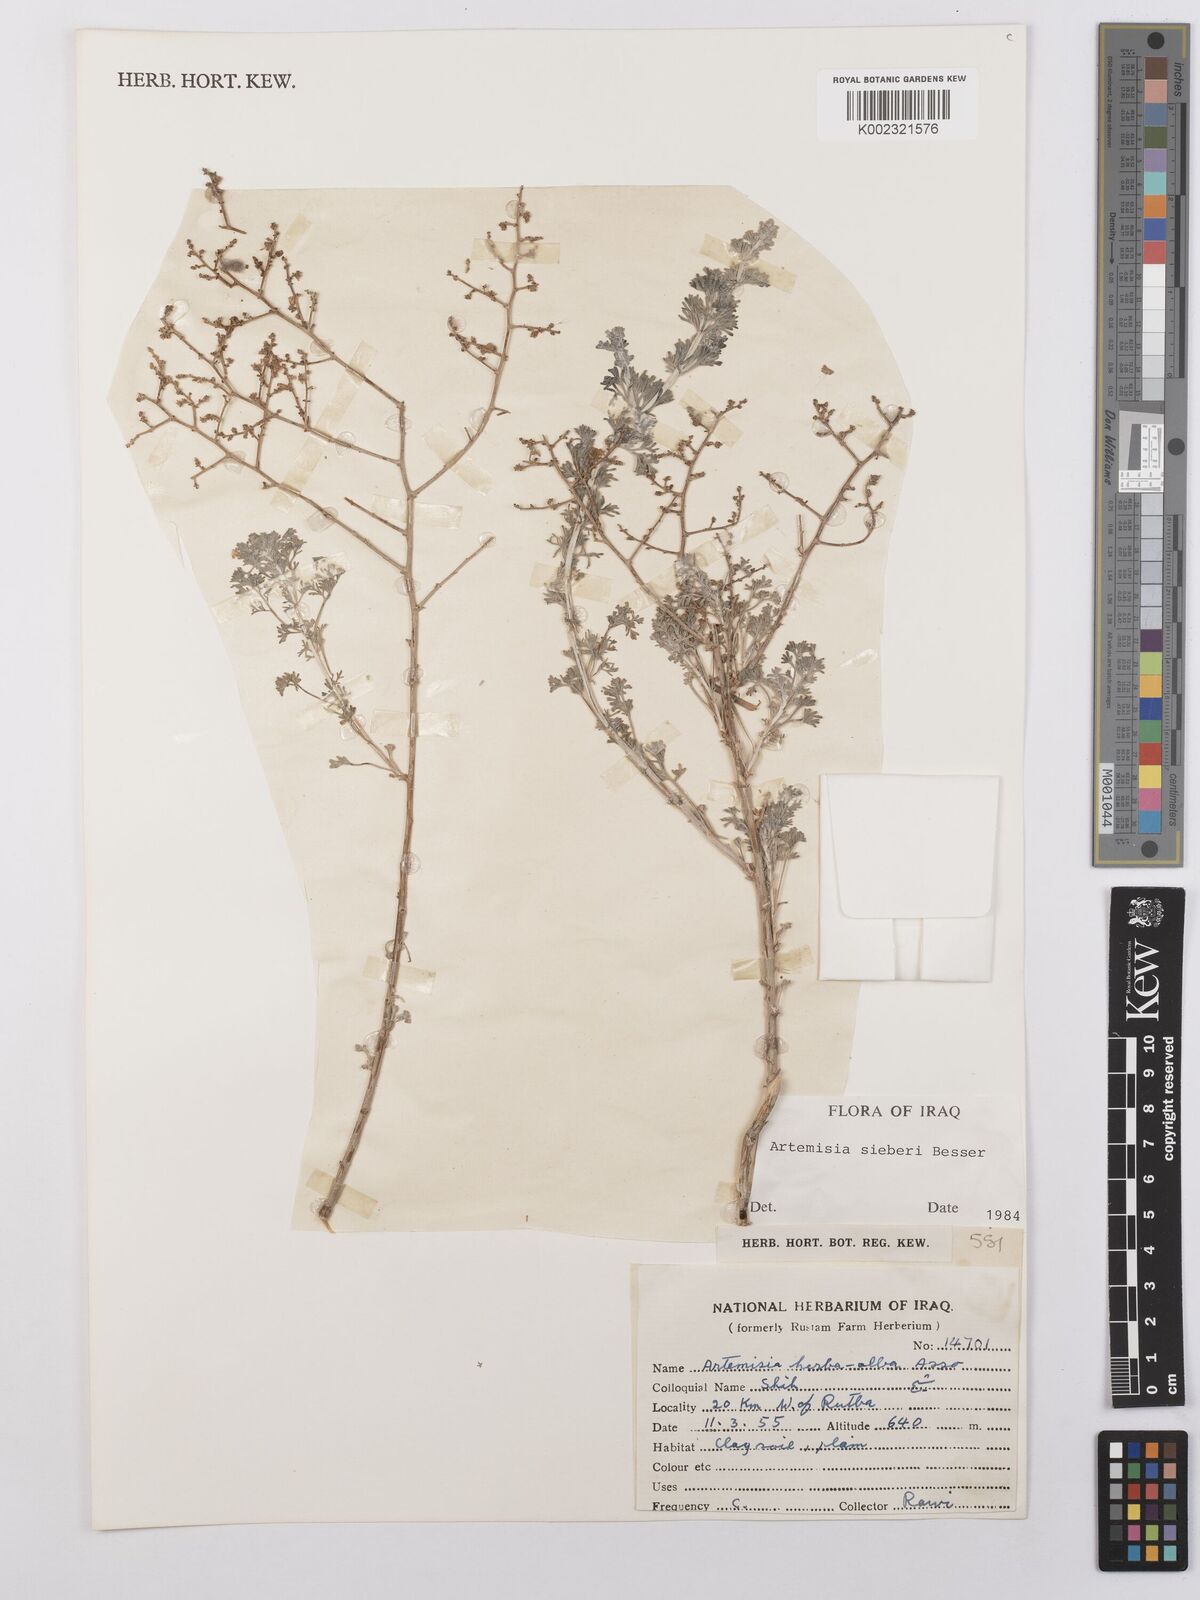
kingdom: Plantae
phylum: Tracheophyta
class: Magnoliopsida
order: Asterales
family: Asteraceae
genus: Artemisia
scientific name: Artemisia sieberi
